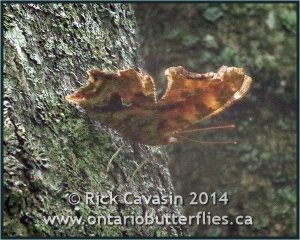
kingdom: Animalia
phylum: Arthropoda
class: Insecta
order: Lepidoptera
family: Nymphalidae
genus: Polygonia
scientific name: Polygonia comma
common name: Eastern Comma
